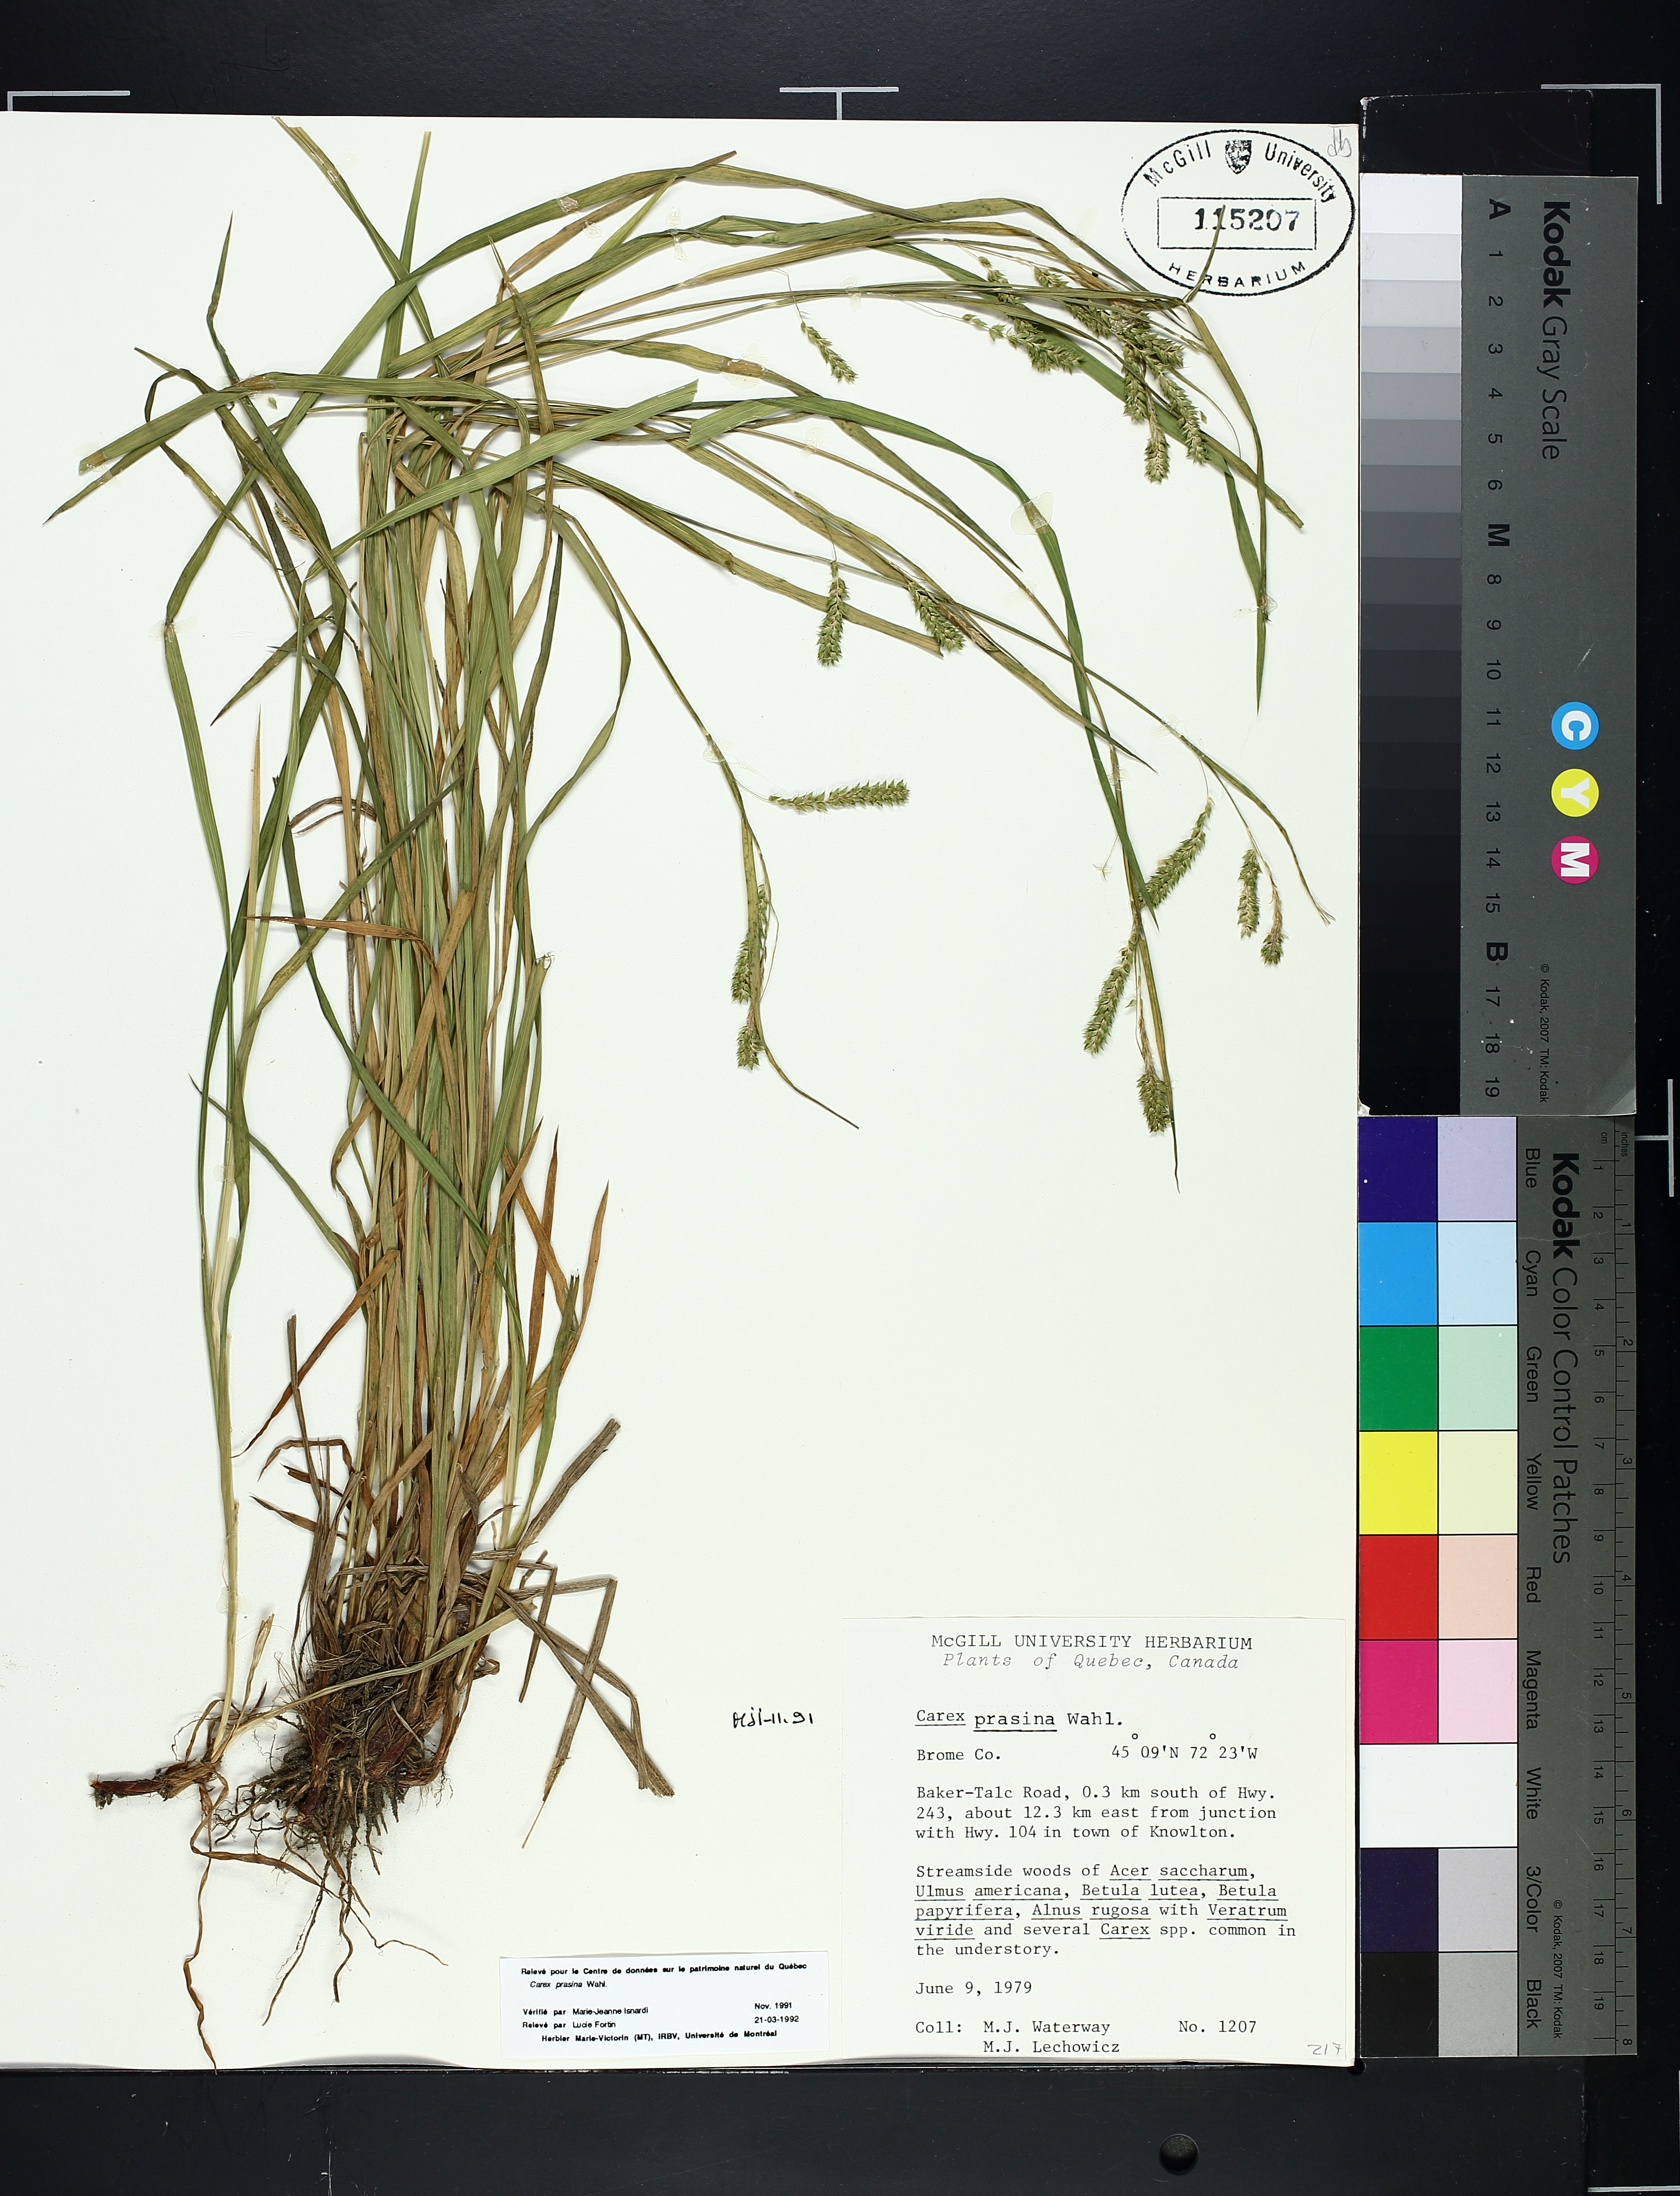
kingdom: Plantae
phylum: Tracheophyta
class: Liliopsida
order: Poales
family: Cyperaceae
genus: Carex
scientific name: Carex prasina
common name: Drooping sedge
